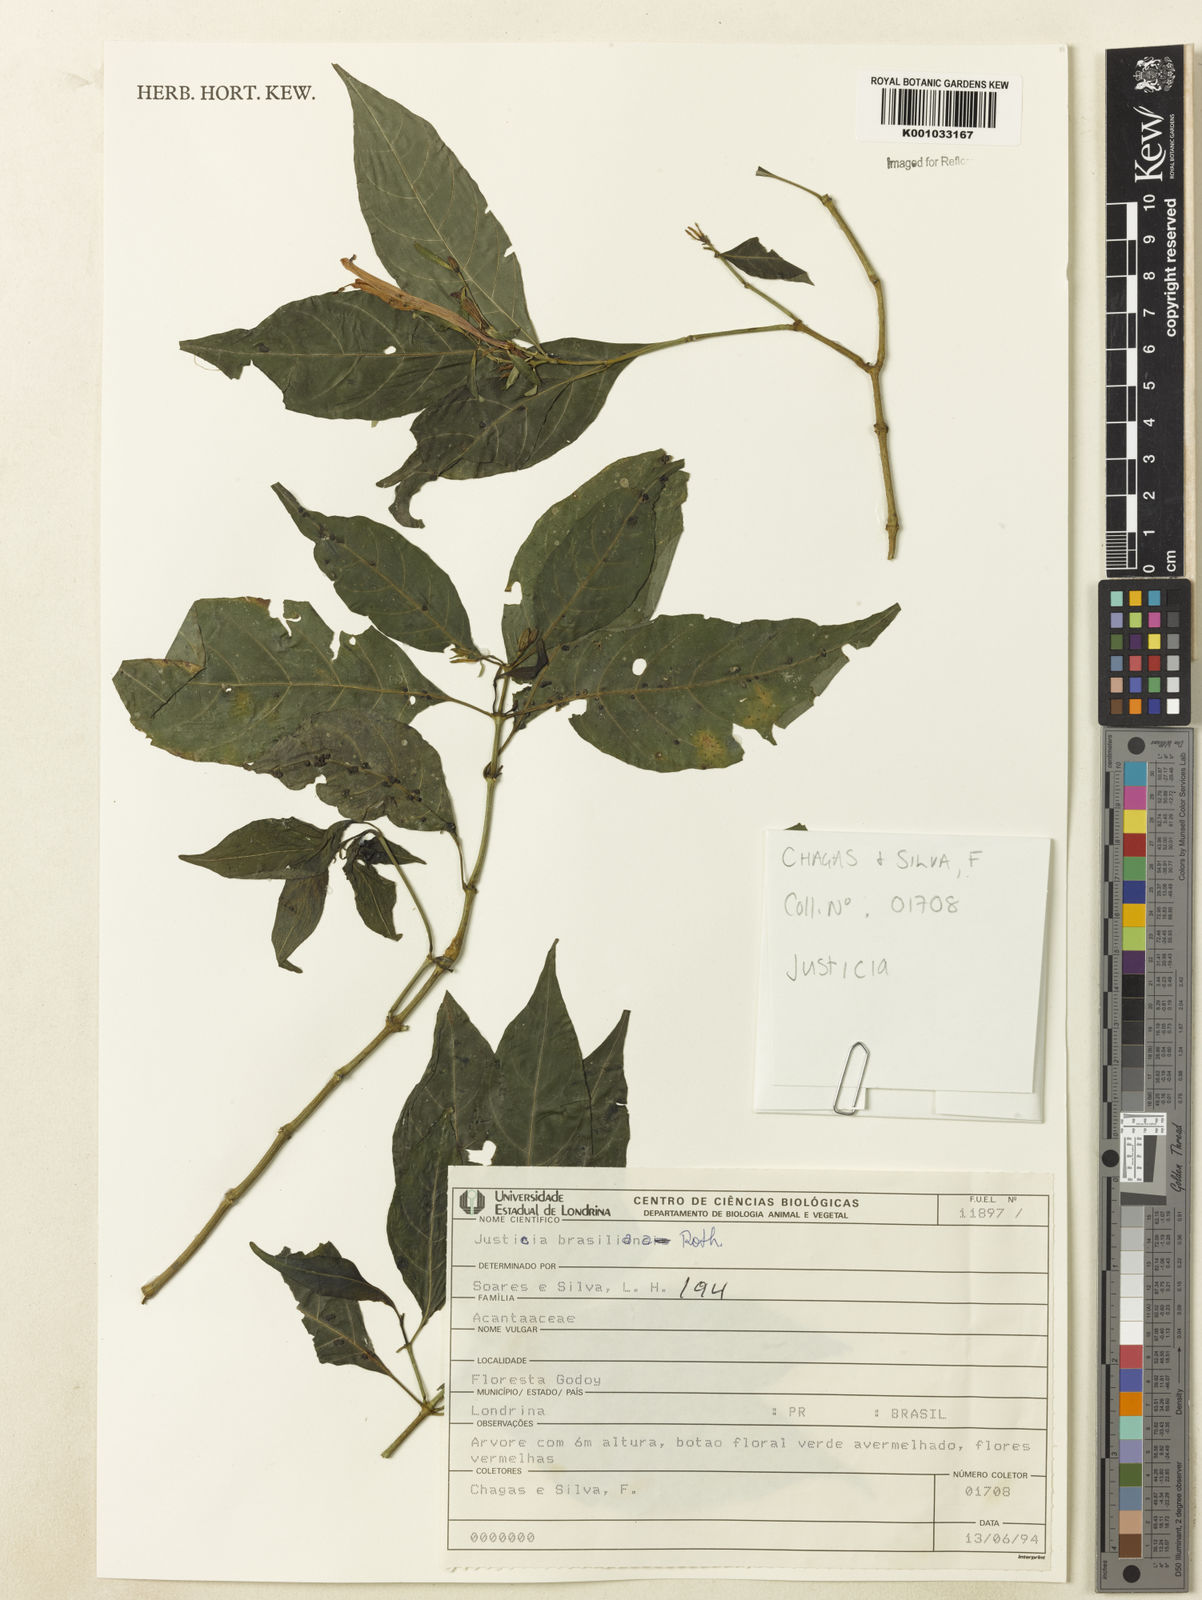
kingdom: Plantae
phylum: Tracheophyta
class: Magnoliopsida
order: Lamiales
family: Acanthaceae
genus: Justicia
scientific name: Justicia brasiliana
